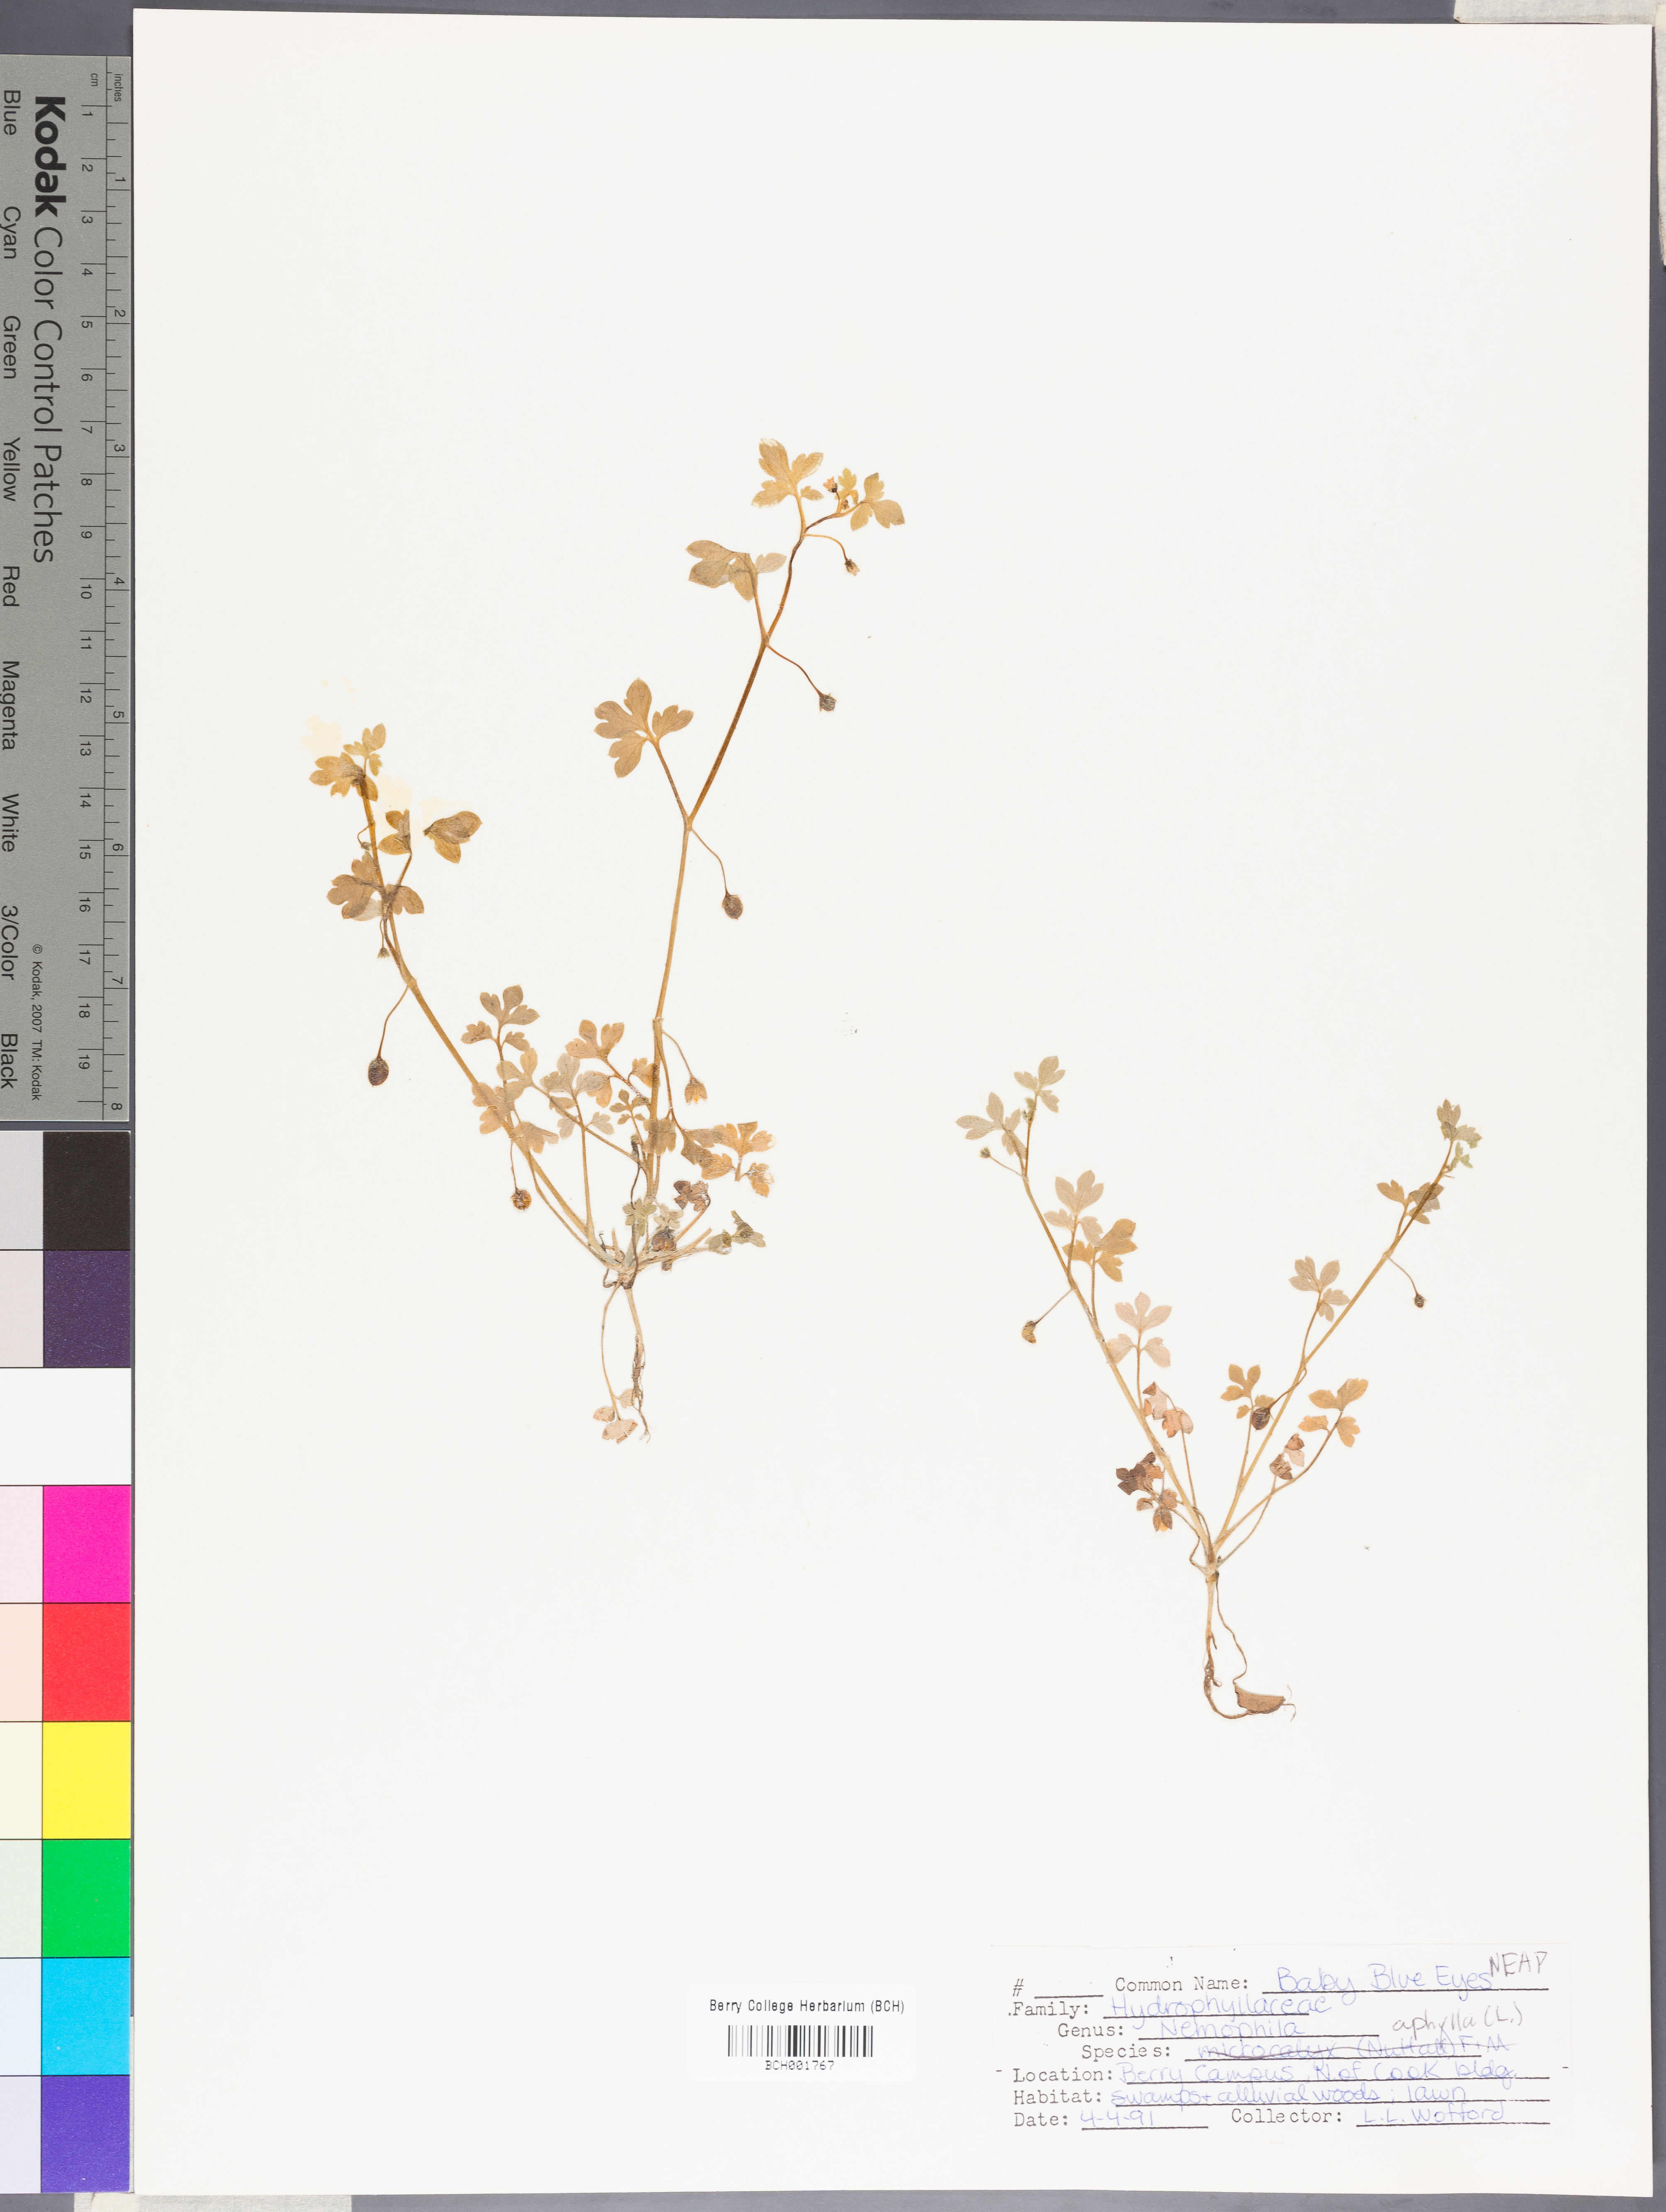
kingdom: Plantae
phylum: Tracheophyta
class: Magnoliopsida
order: Boraginales
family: Hydrophyllaceae
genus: Nemophila
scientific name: Nemophila aphylla
